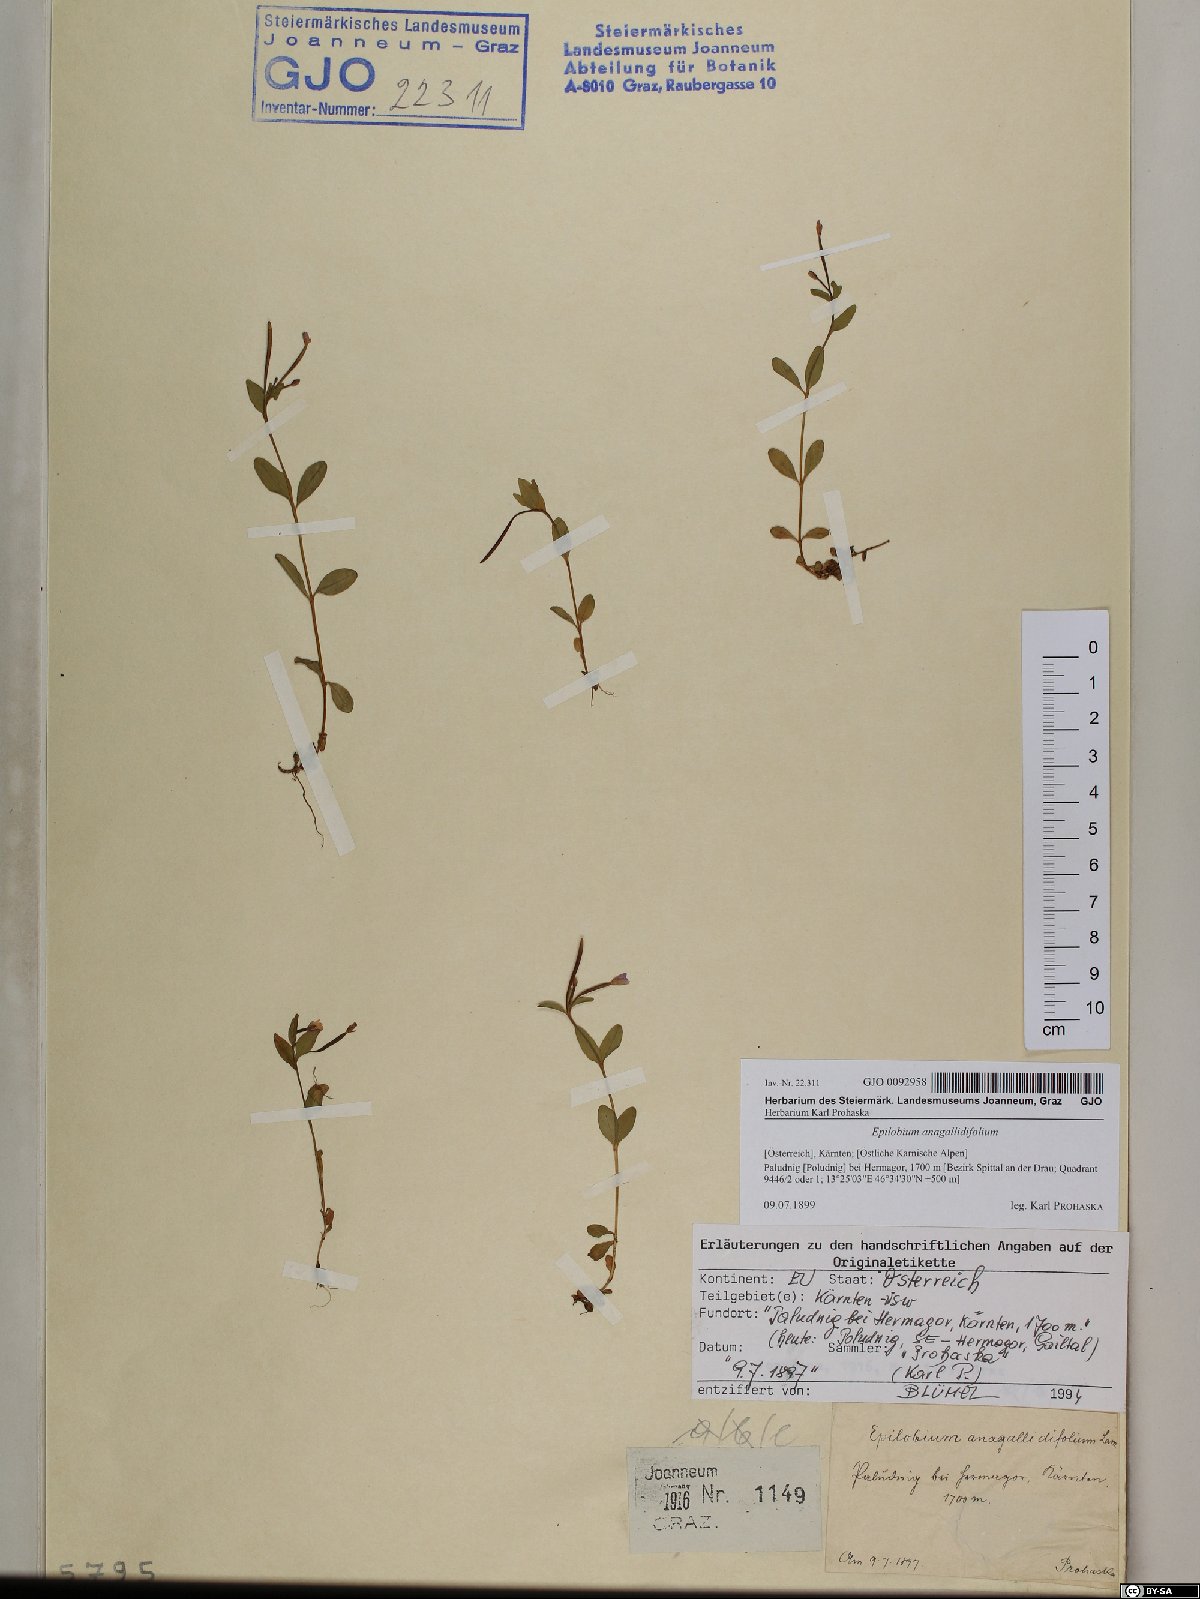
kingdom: Plantae
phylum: Tracheophyta
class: Magnoliopsida
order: Myrtales
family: Onagraceae
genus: Epilobium
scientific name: Epilobium anagallidifolium
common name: Alpine willowherb
